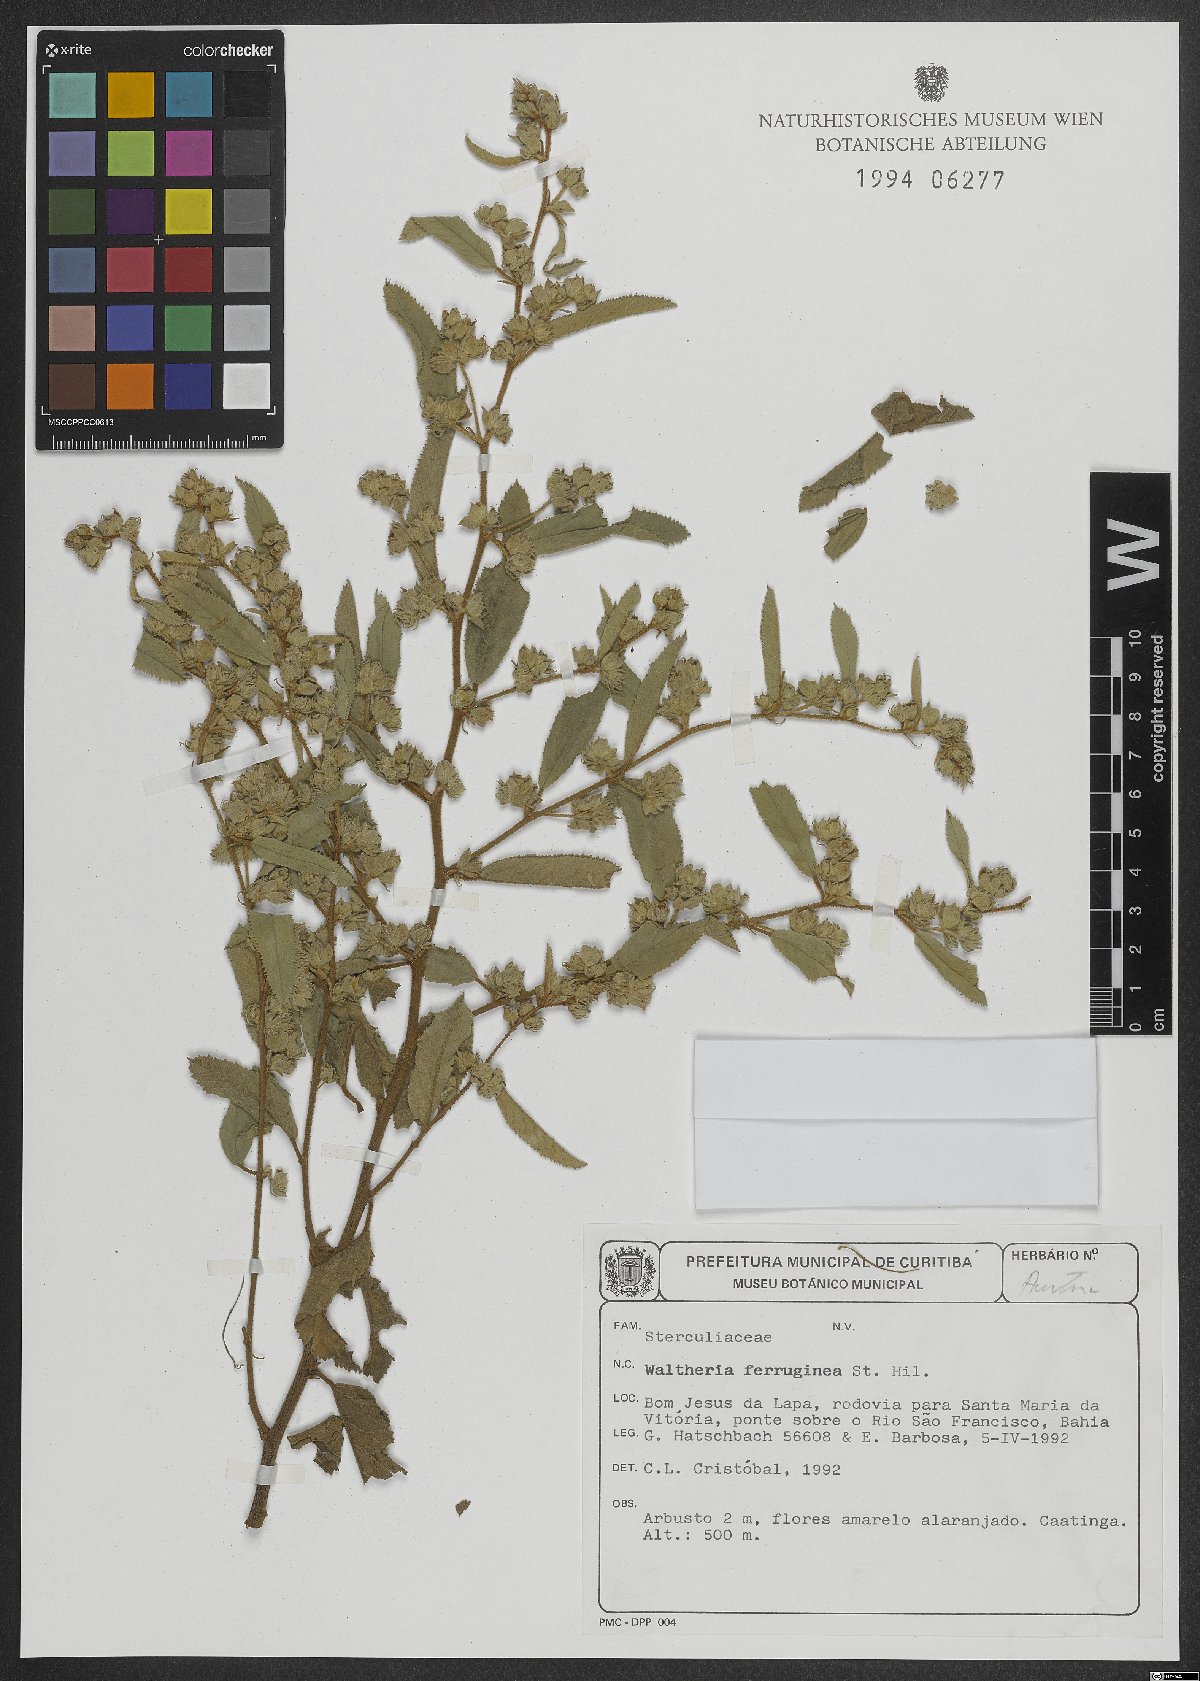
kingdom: Plantae
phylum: Tracheophyta
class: Magnoliopsida
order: Malvales
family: Malvaceae
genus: Waltheria
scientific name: Waltheria ferruginea
